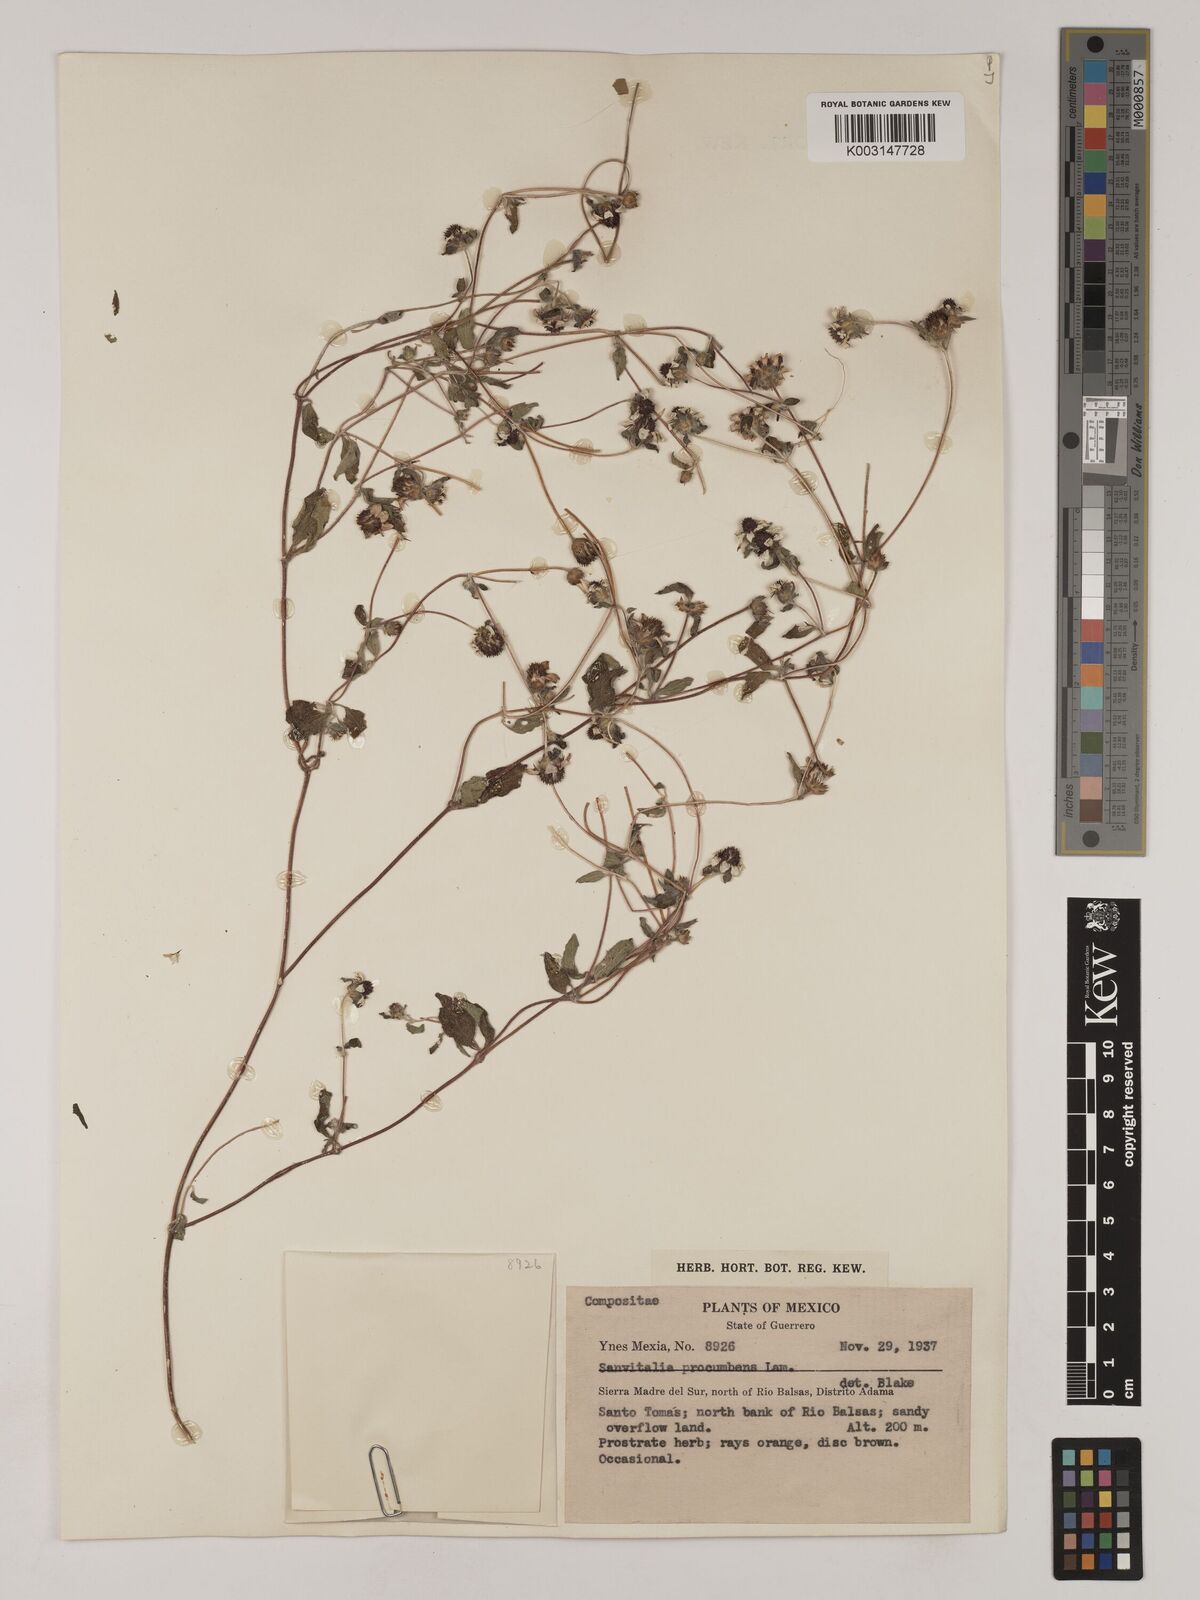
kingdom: Plantae
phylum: Tracheophyta
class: Magnoliopsida
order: Asterales
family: Asteraceae
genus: Sanvitalia
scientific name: Sanvitalia procumbens
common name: Mexican creeping zinnia
